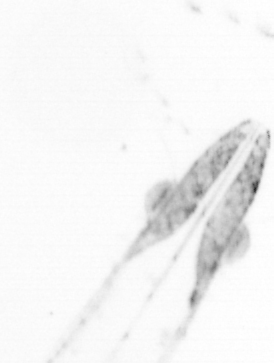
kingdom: Animalia
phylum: Chaetognatha
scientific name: Chaetognatha
